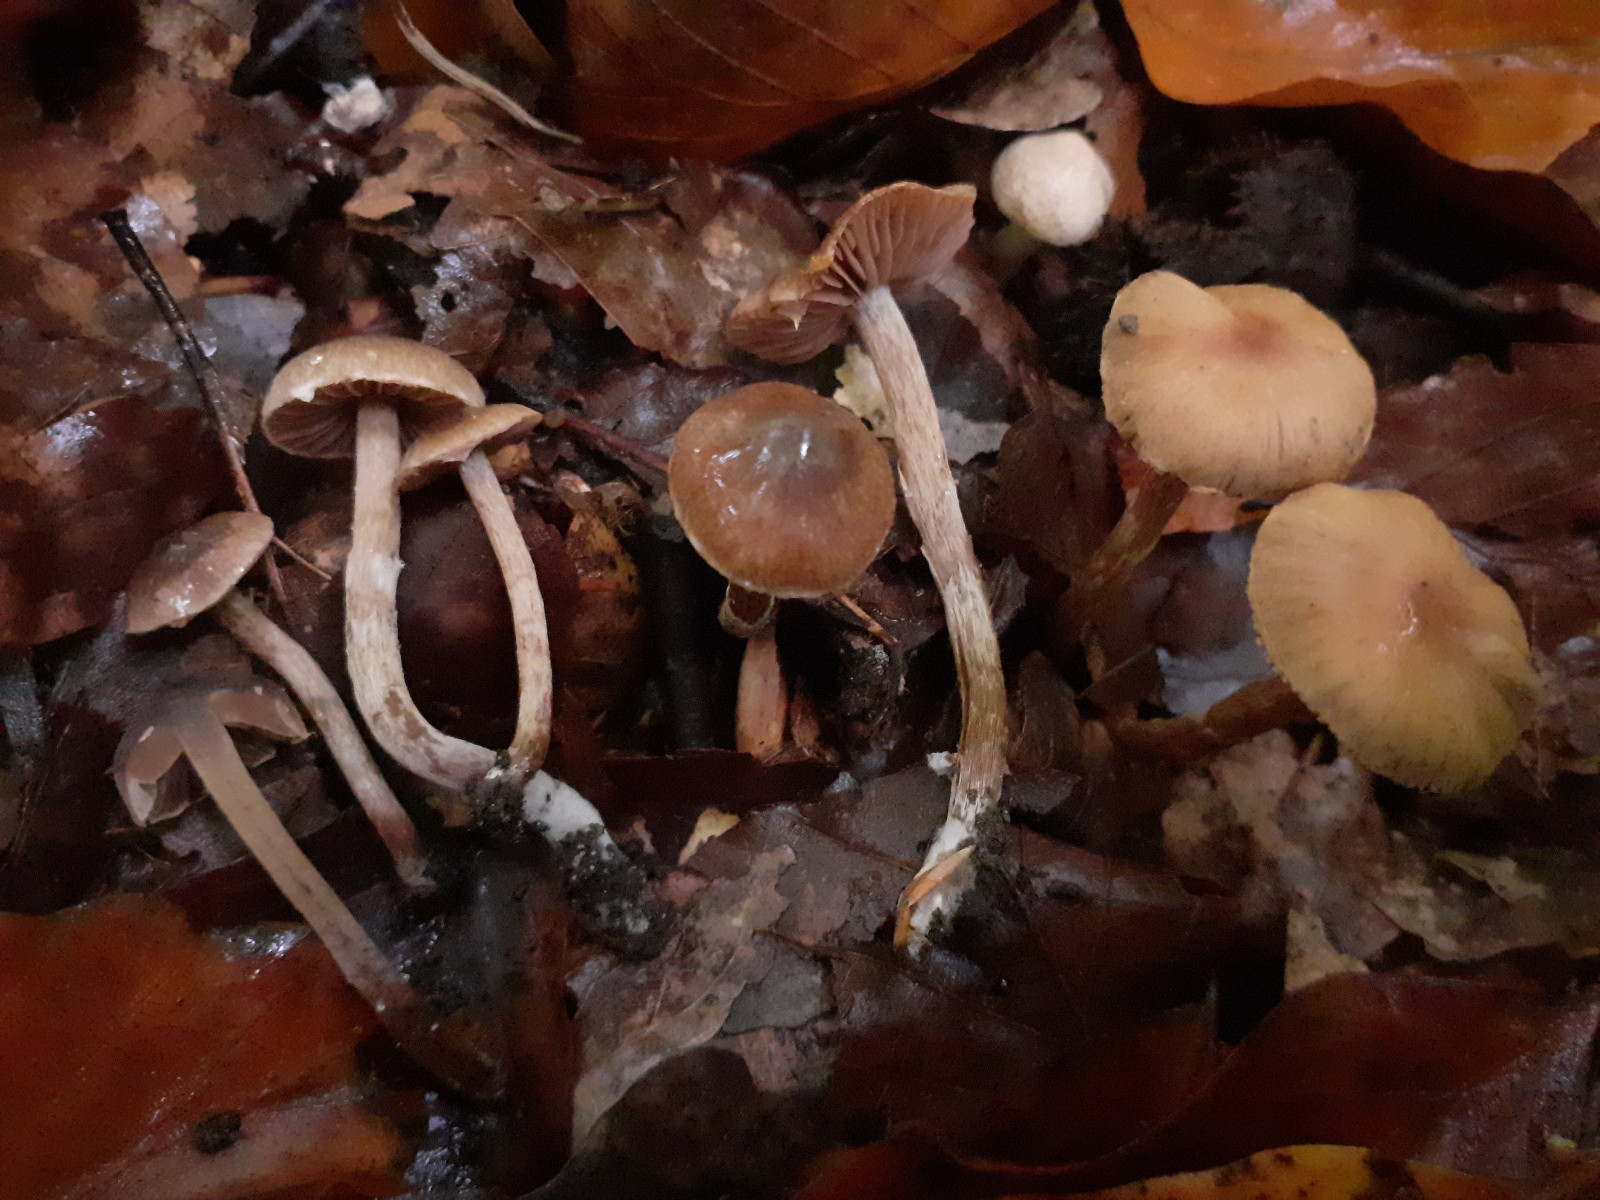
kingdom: Fungi
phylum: Basidiomycota
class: Agaricomycetes
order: Agaricales
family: Cortinariaceae
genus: Cortinarius
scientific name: Cortinarius desertorum
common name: skær slørhat
